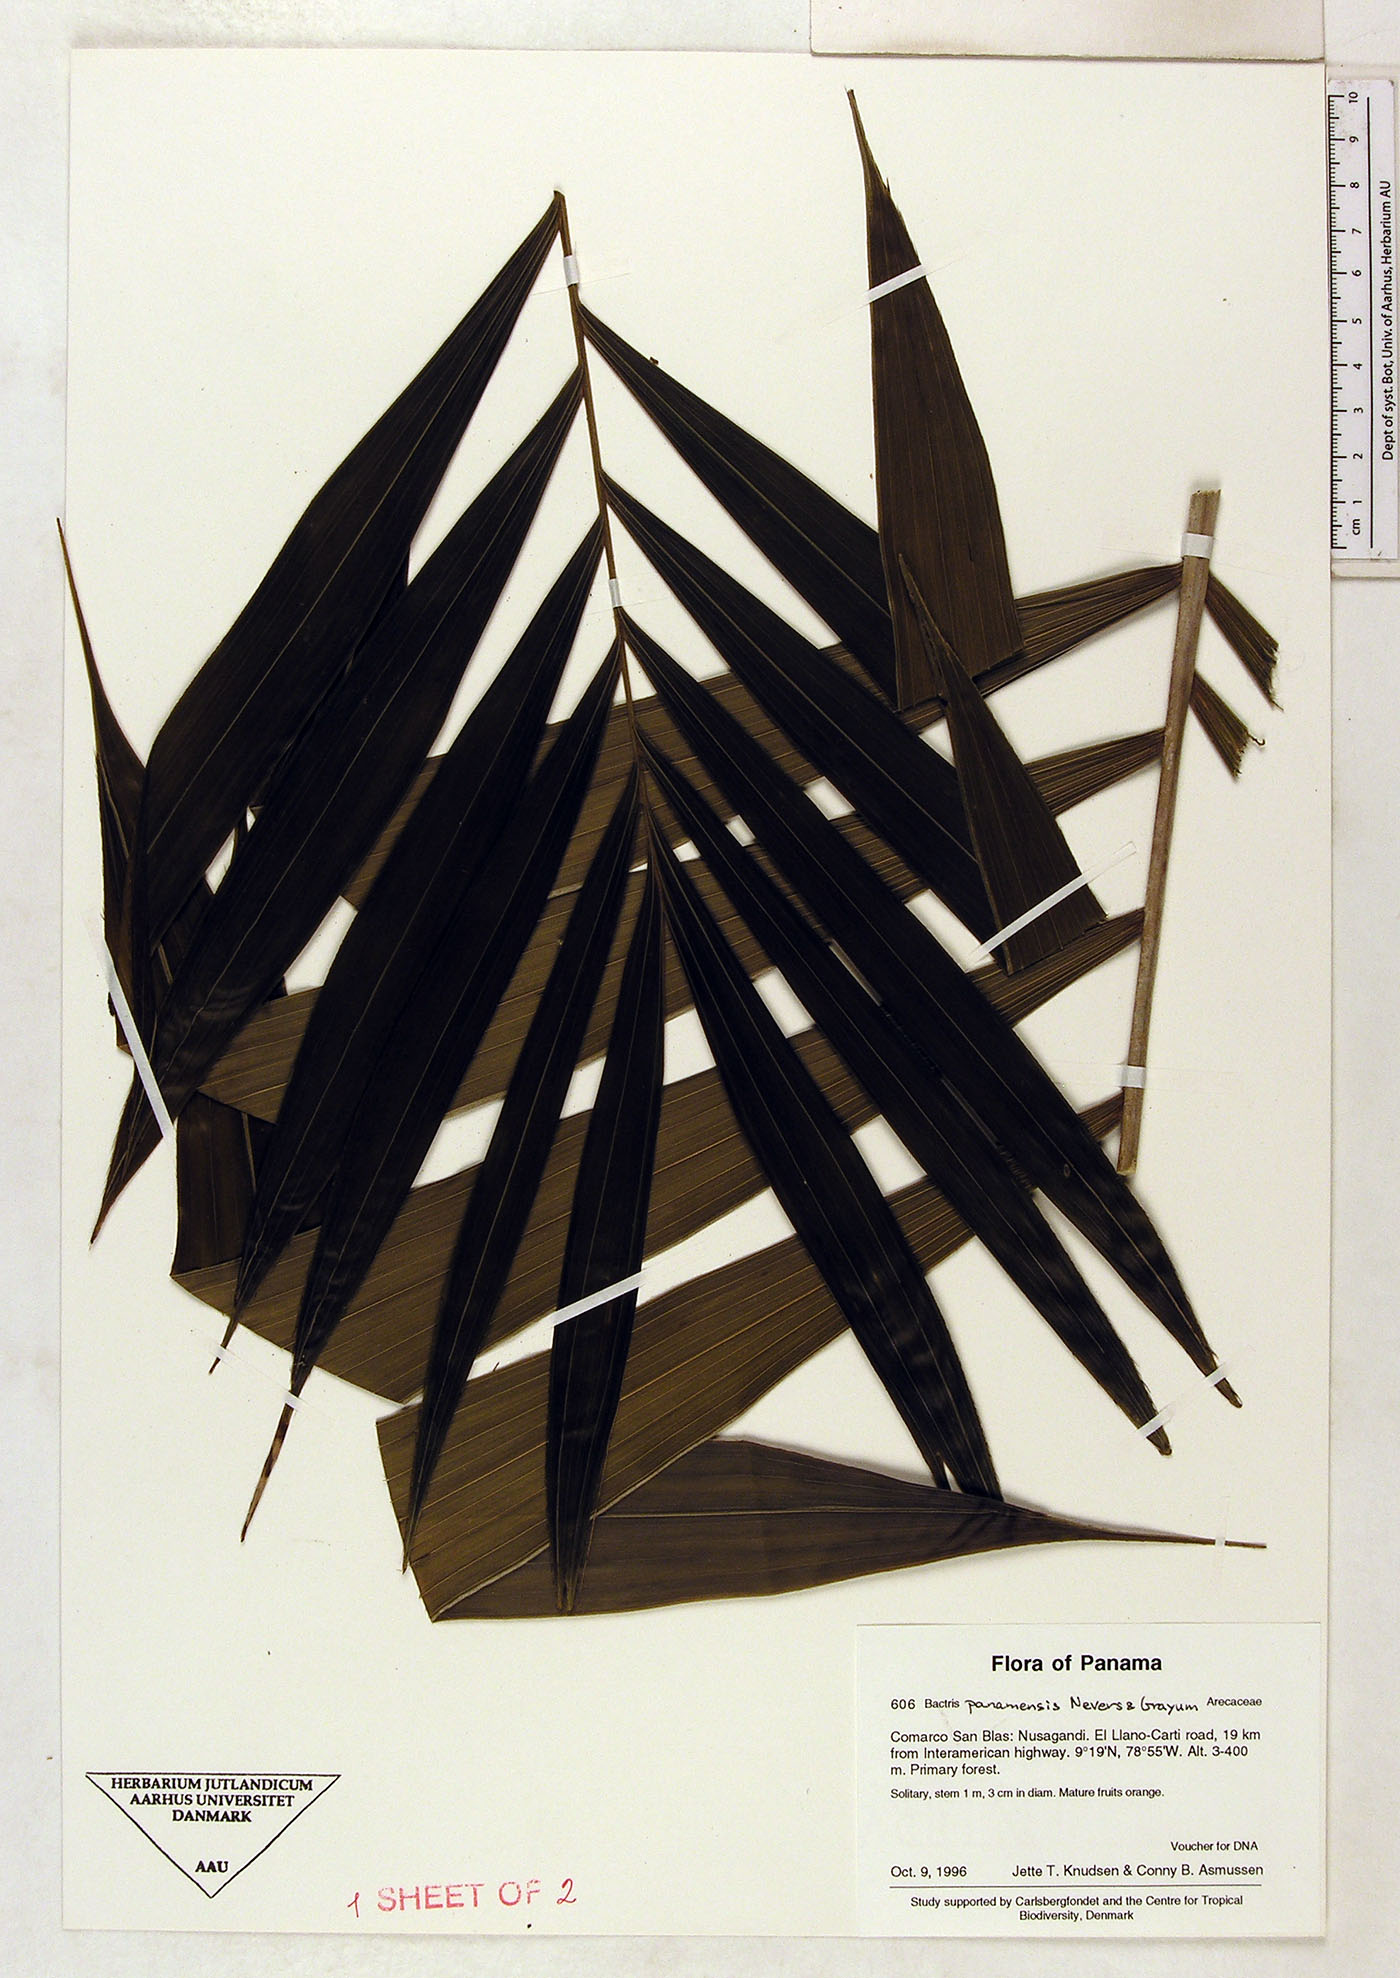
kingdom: Plantae
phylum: Tracheophyta
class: Liliopsida
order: Arecales
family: Arecaceae
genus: Bactris
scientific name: Bactris panamensis
